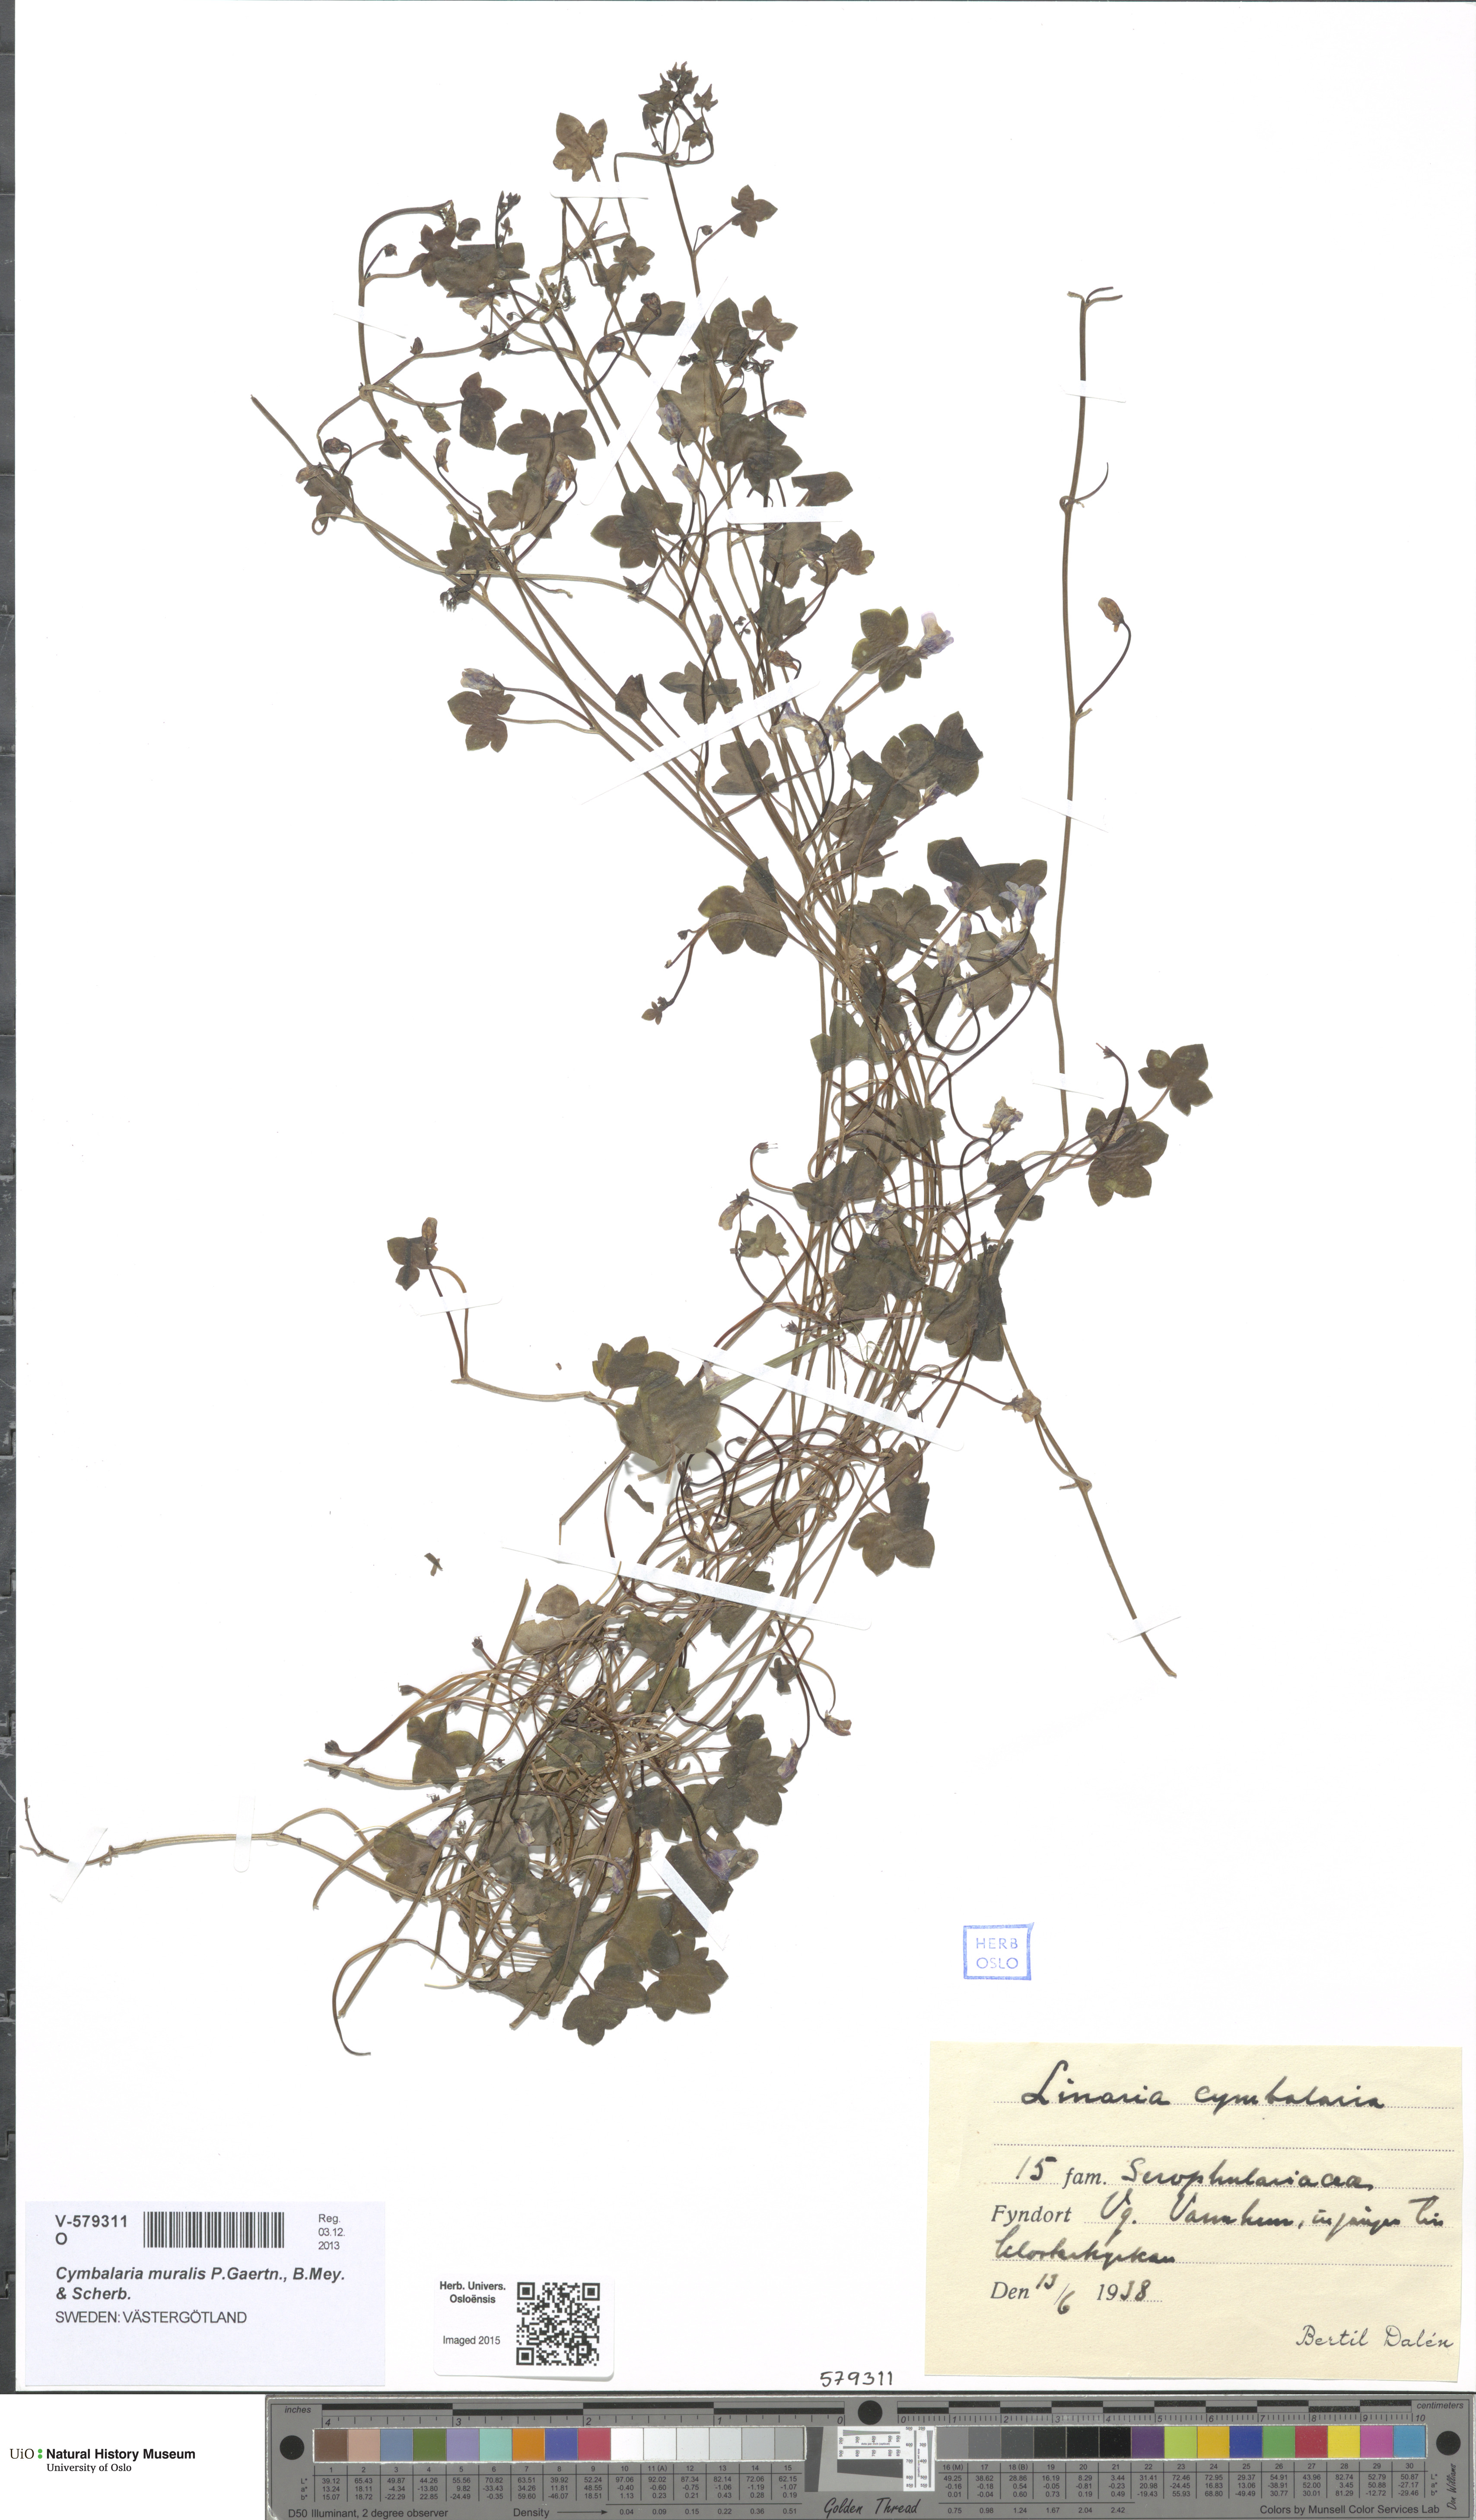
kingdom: Plantae
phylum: Tracheophyta
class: Magnoliopsida
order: Lamiales
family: Plantaginaceae
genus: Cymbalaria
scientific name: Cymbalaria muralis
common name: Ivy-leaved toadflax
